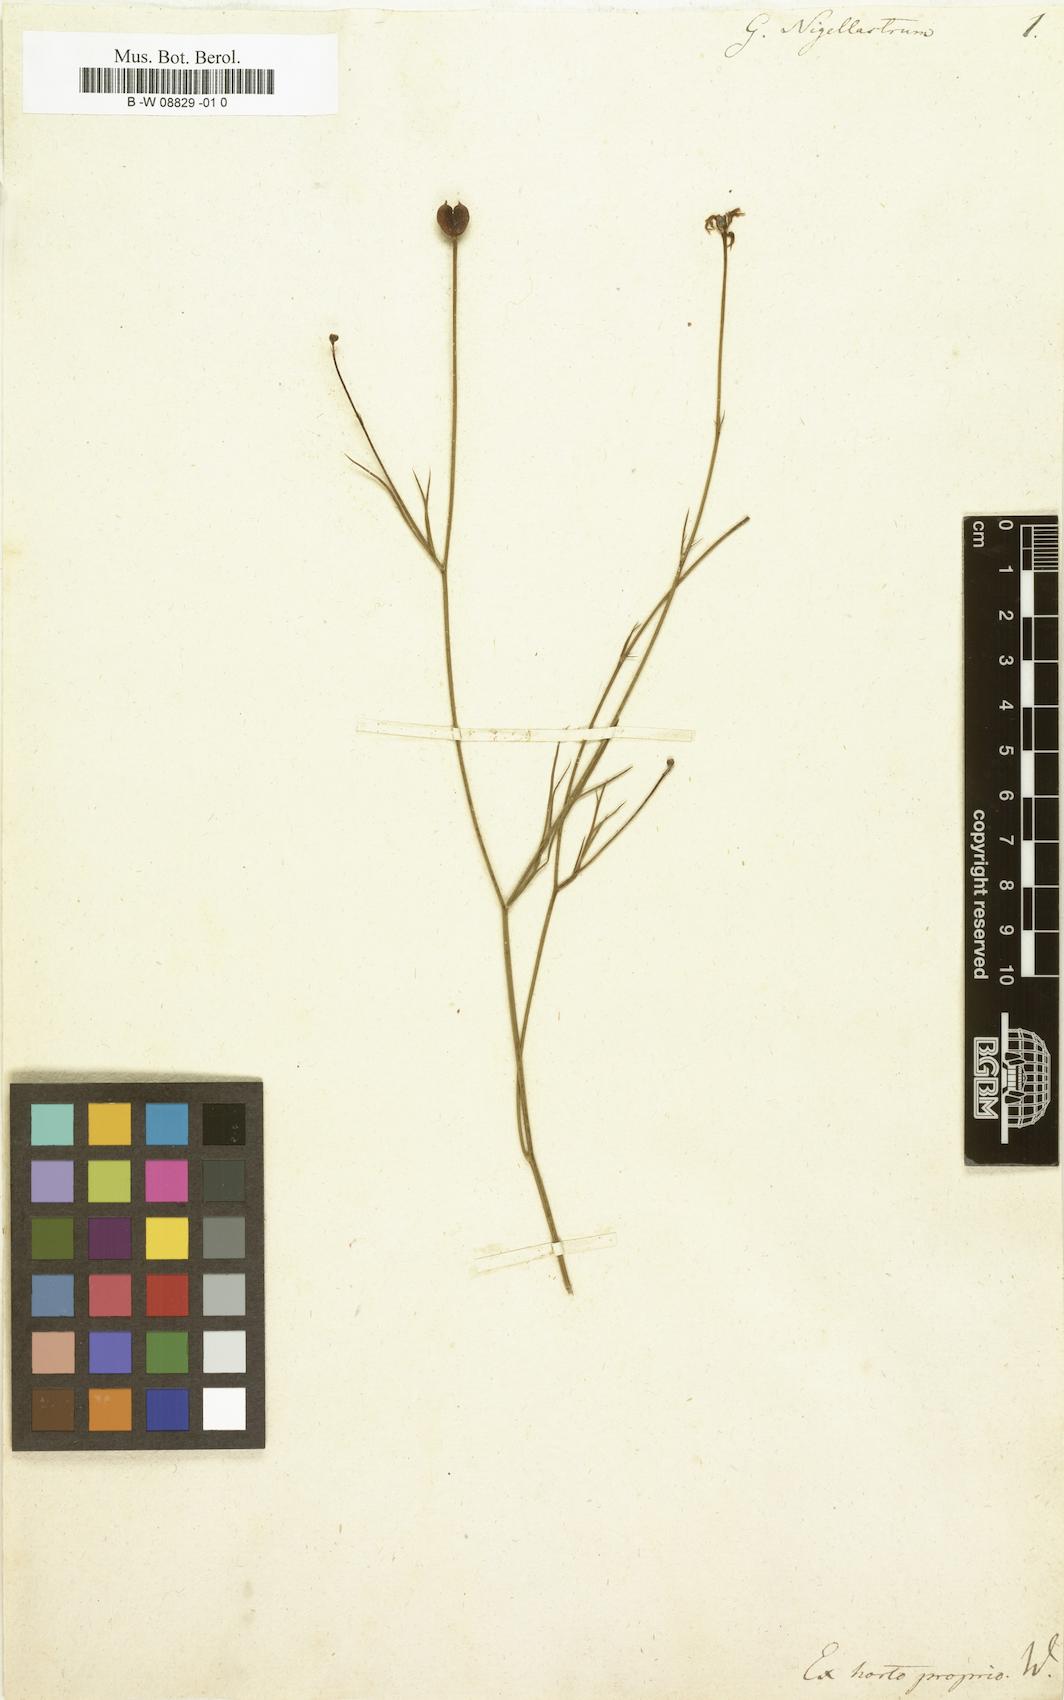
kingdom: Plantae
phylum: Tracheophyta
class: Magnoliopsida
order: Ranunculales
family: Ranunculaceae
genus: Garidella
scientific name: Garidella nigellastrum
